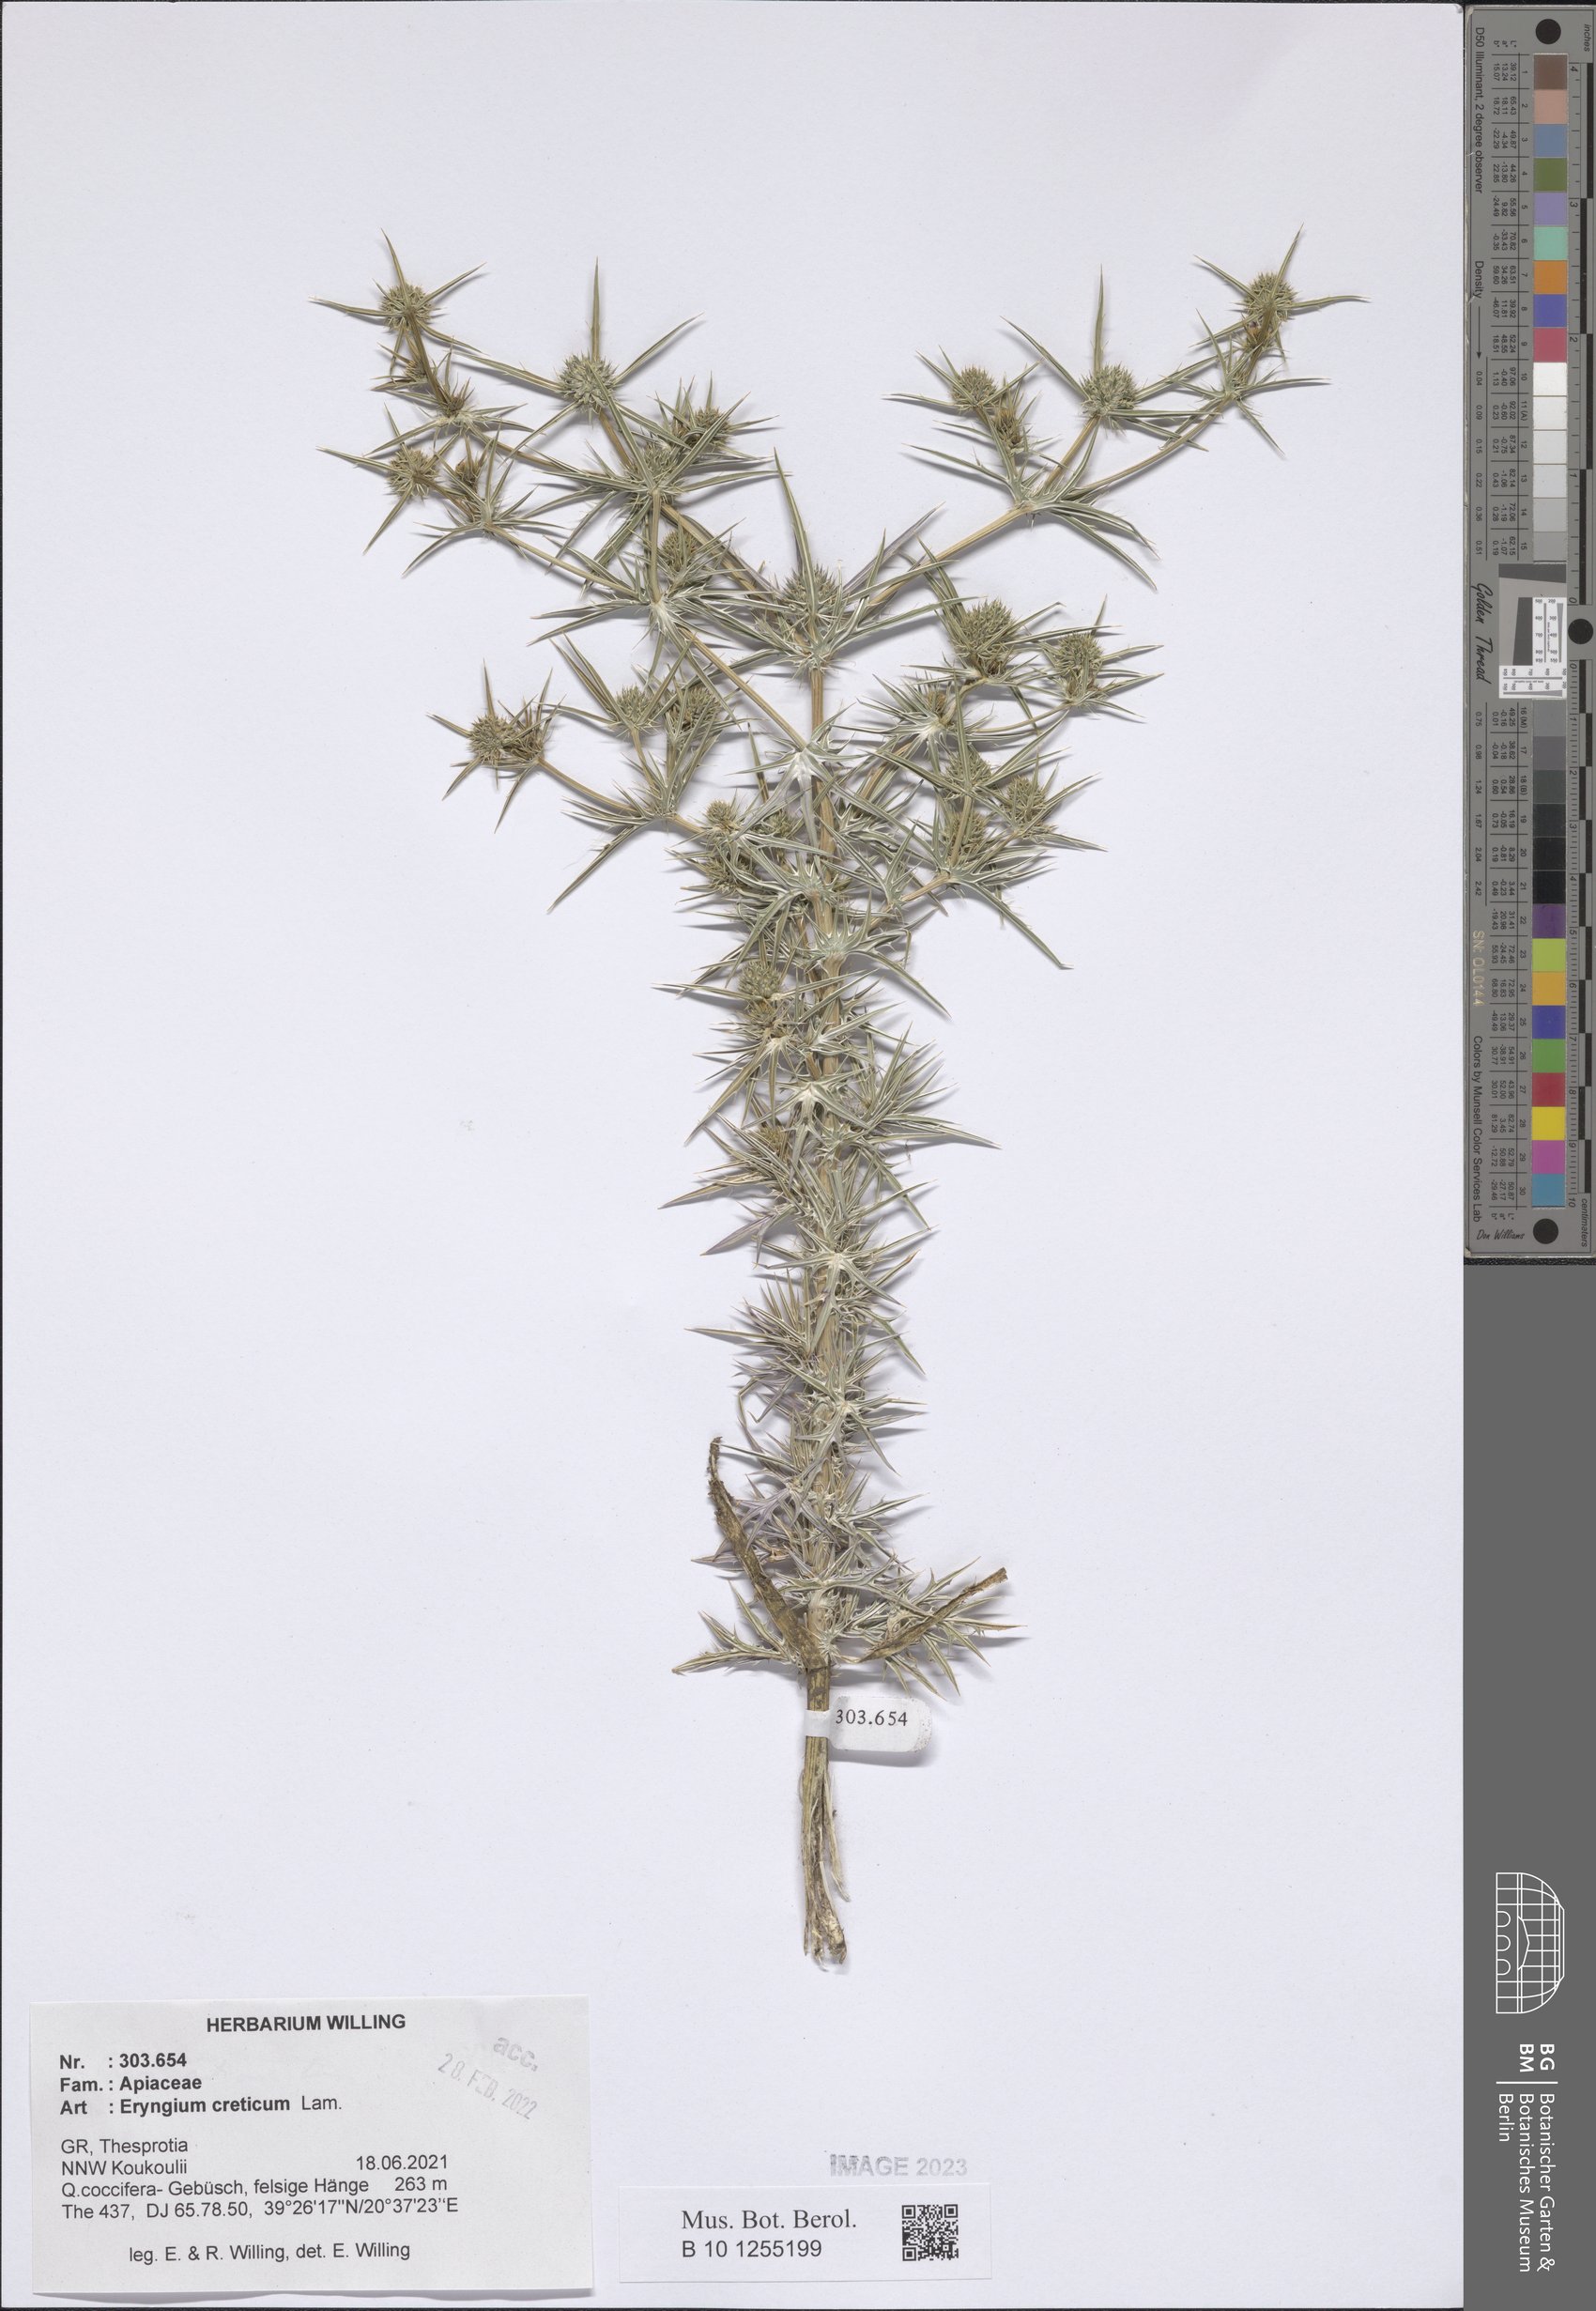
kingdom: Plantae
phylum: Tracheophyta
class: Magnoliopsida
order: Apiales
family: Apiaceae
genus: Eryngium
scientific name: Eryngium creticum
